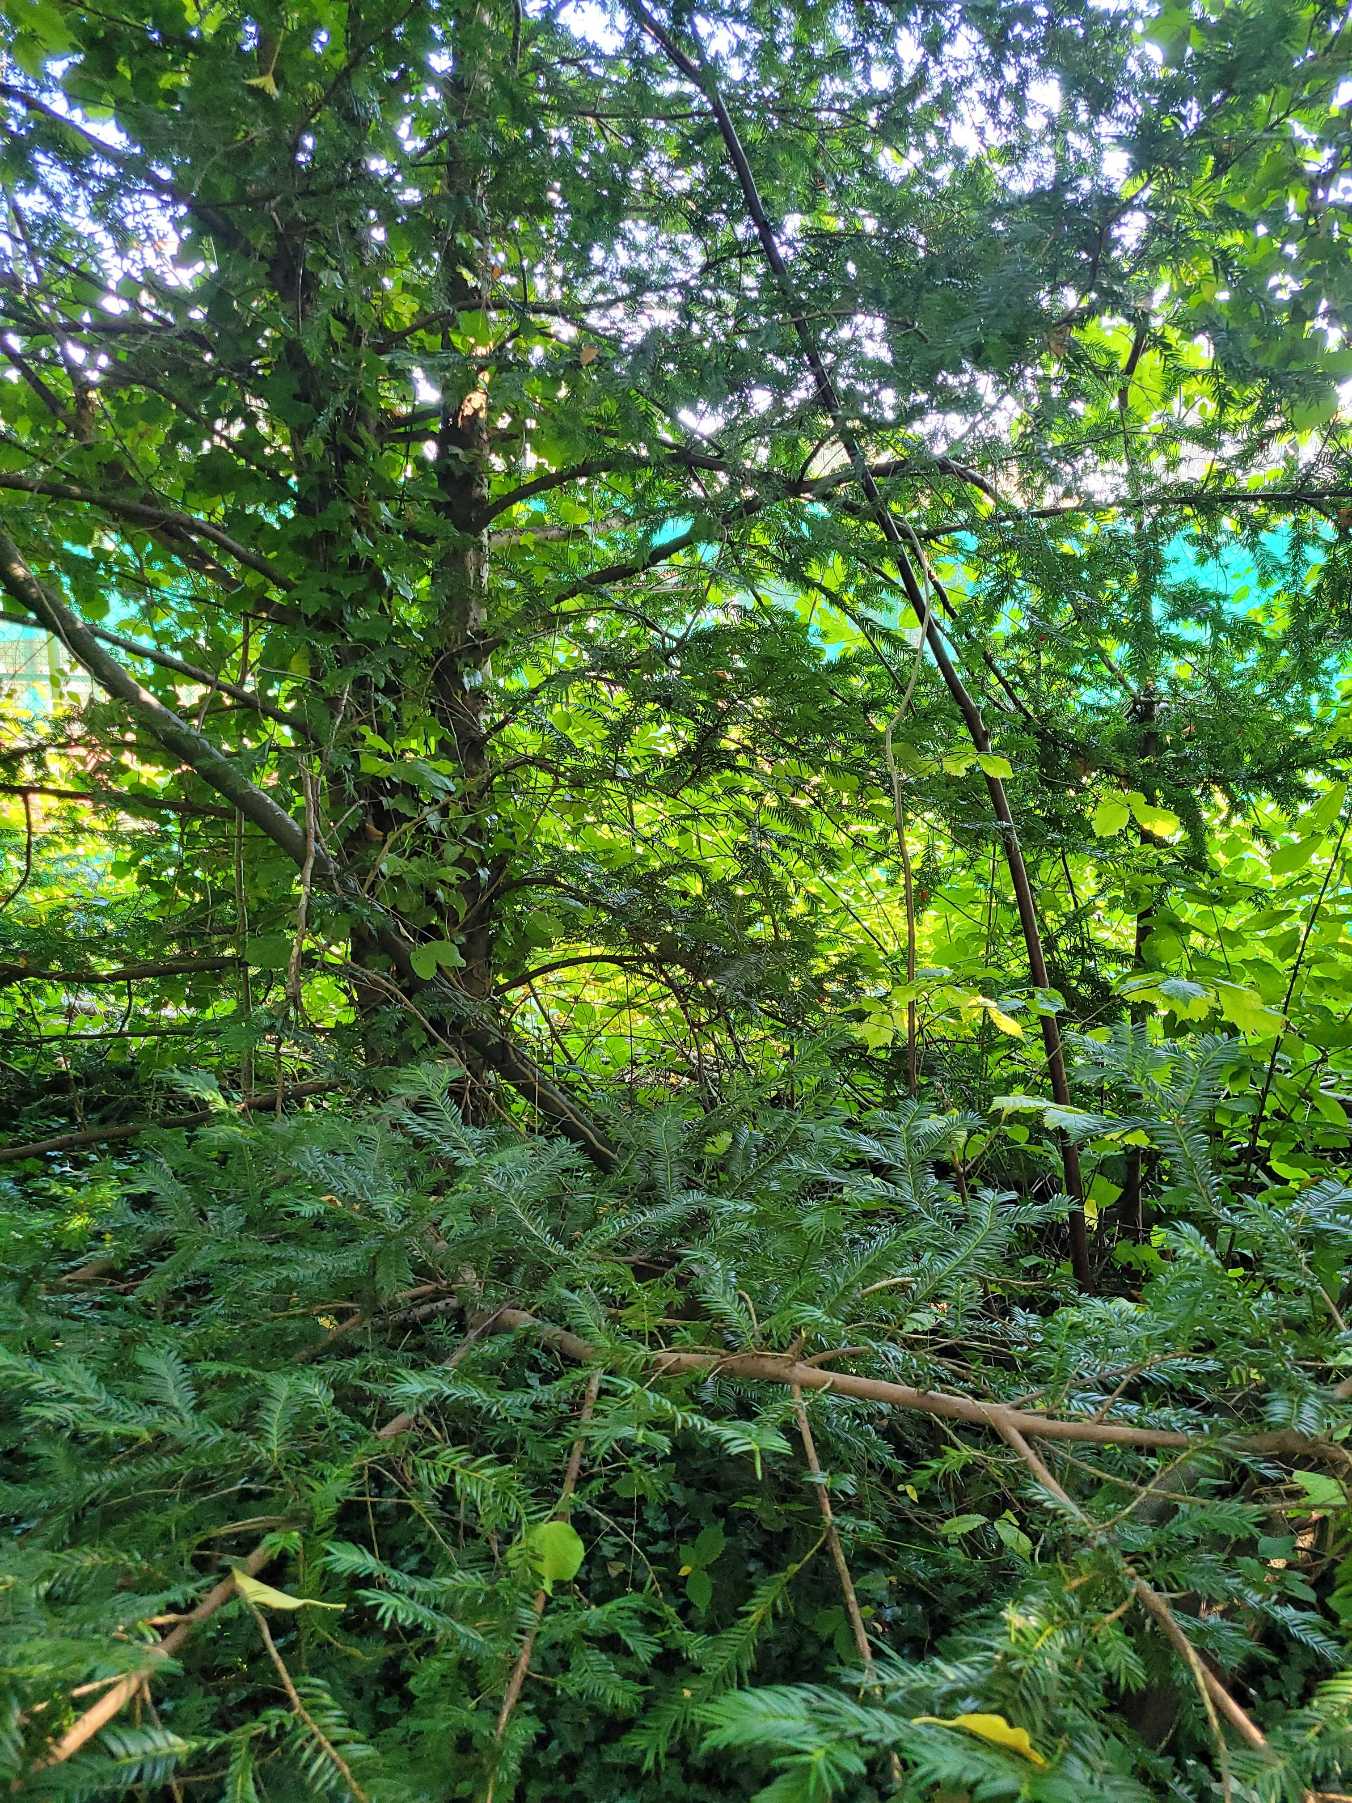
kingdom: Plantae
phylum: Tracheophyta
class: Pinopsida
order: Pinales
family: Taxaceae
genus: Taxus
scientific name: Taxus baccata
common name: Almindelig taks
